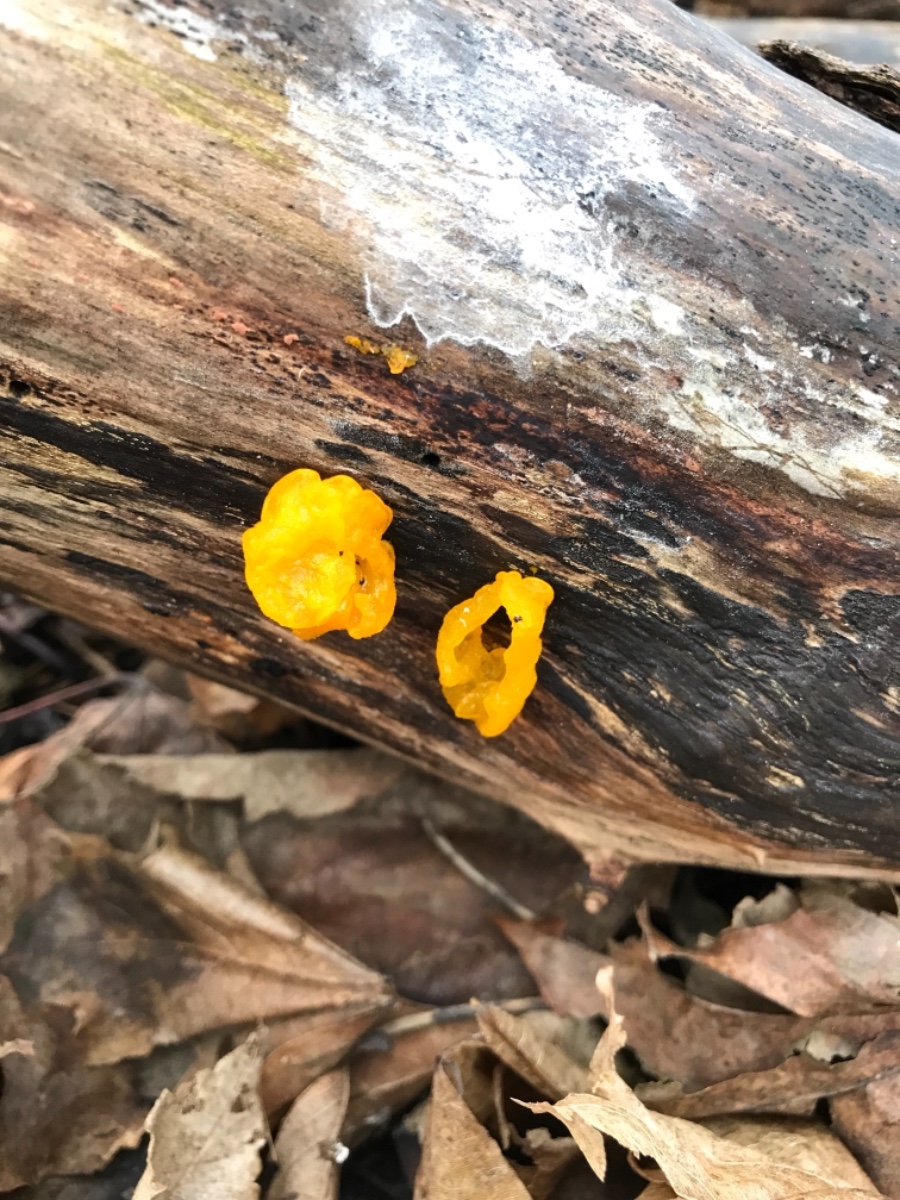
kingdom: Fungi
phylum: Basidiomycota
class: Tremellomycetes
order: Tremellales
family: Tremellaceae
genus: Tremella
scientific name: Tremella mesenterica
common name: gul bævresvamp
